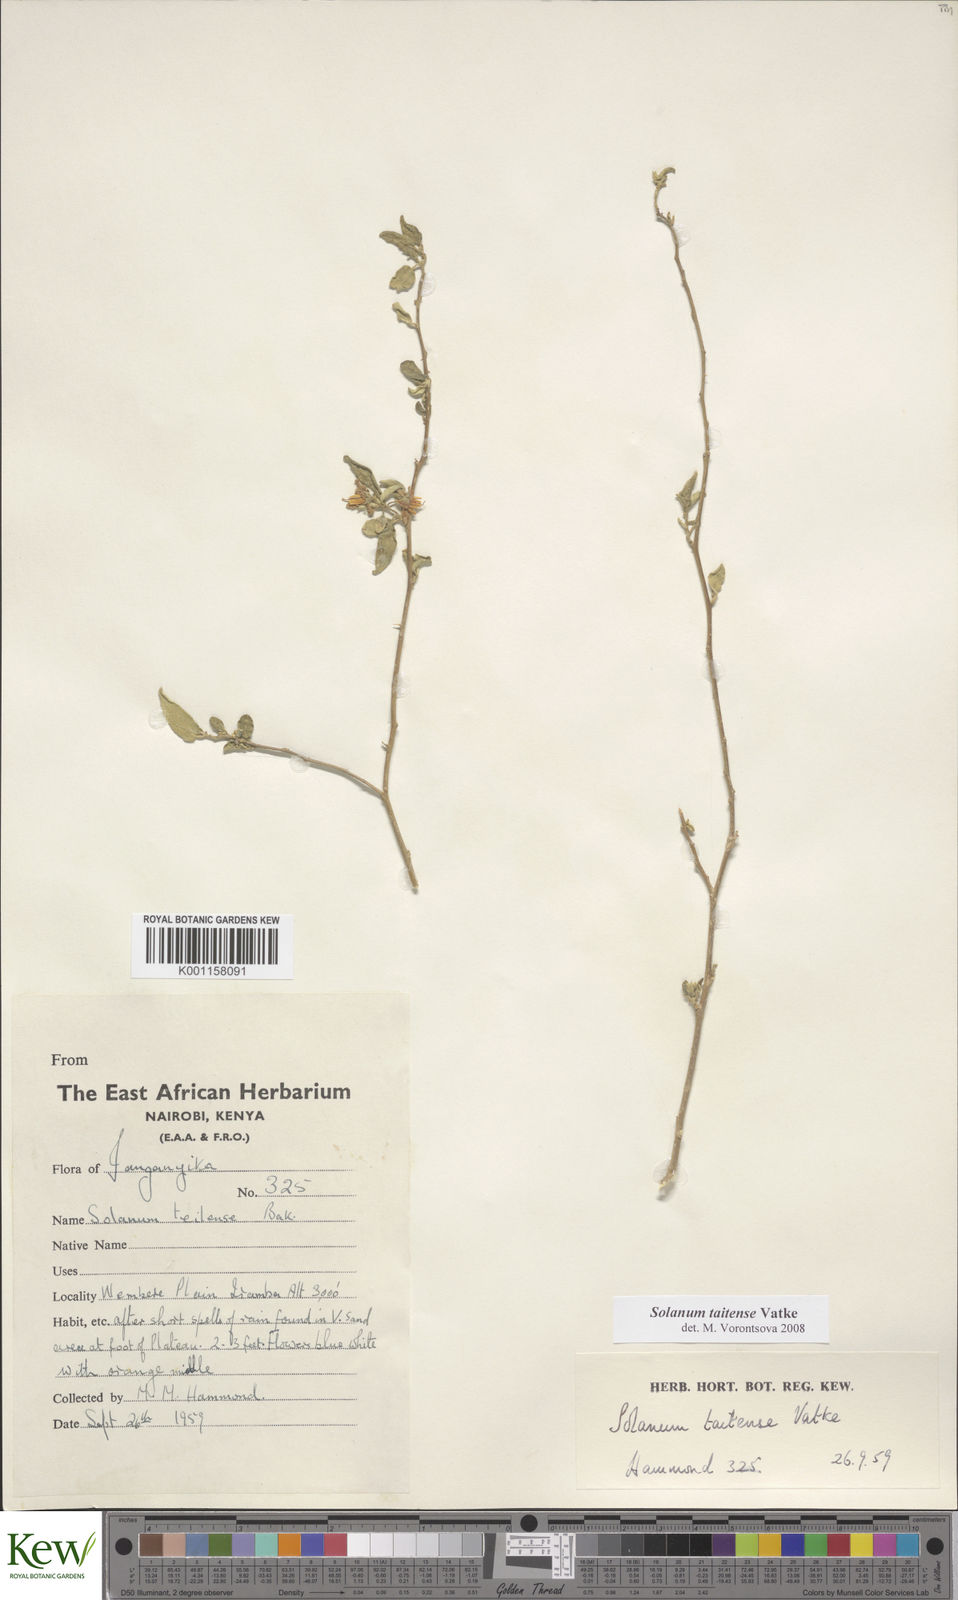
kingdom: Plantae
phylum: Tracheophyta
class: Magnoliopsida
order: Solanales
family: Solanaceae
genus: Solanum
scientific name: Solanum taitense
